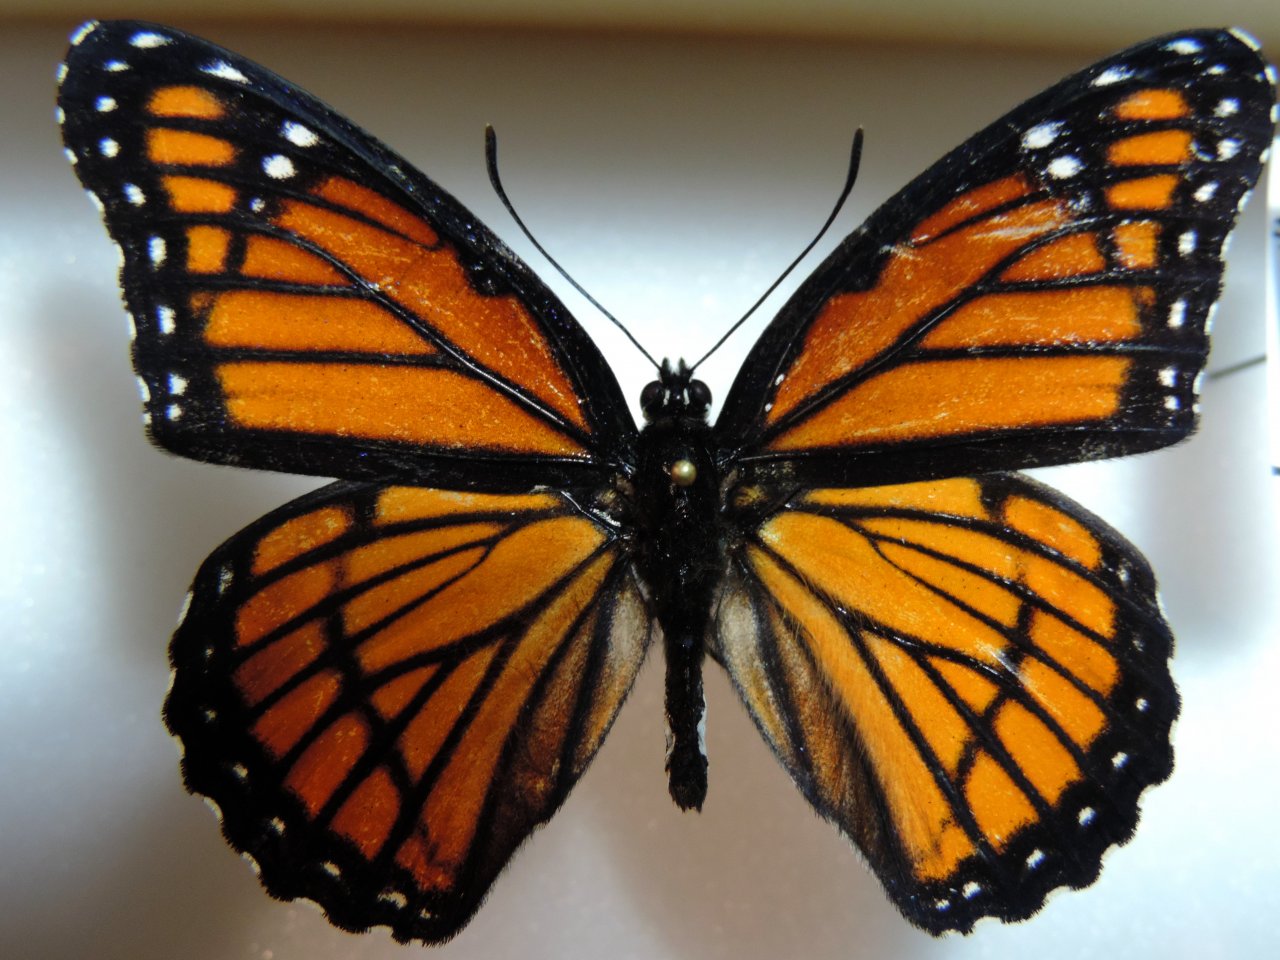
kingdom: Animalia
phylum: Arthropoda
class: Insecta
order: Lepidoptera
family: Nymphalidae
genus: Limenitis
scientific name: Limenitis archippus
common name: Viceroy
